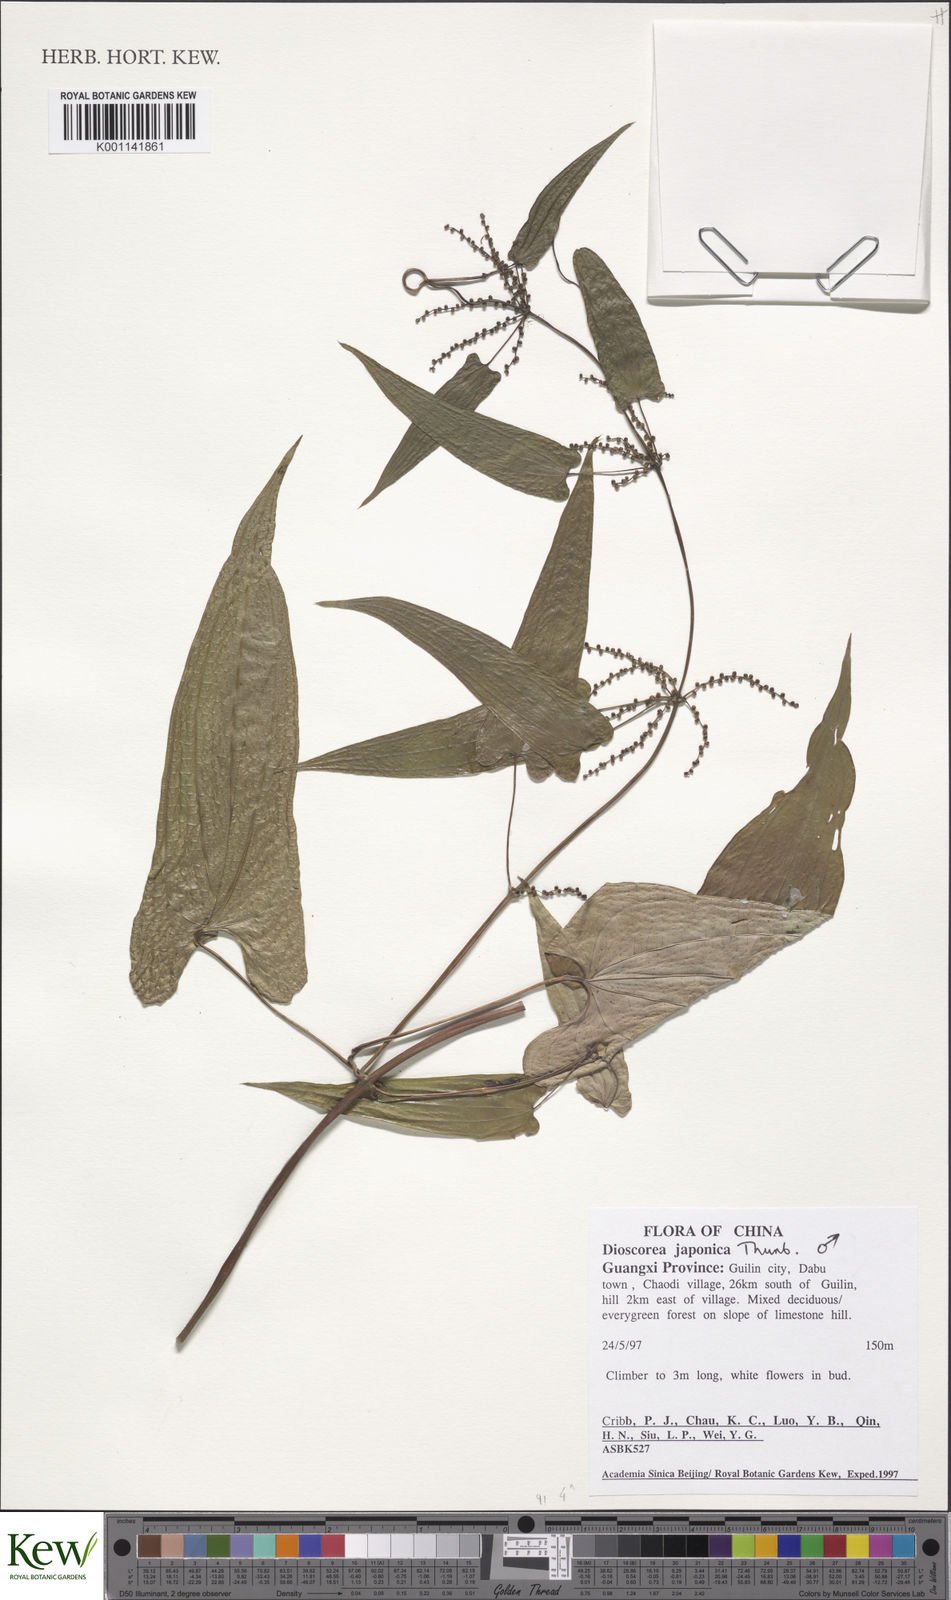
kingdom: Plantae
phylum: Tracheophyta
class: Liliopsida
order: Dioscoreales
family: Dioscoreaceae
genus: Dioscorea
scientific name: Dioscorea japonica
